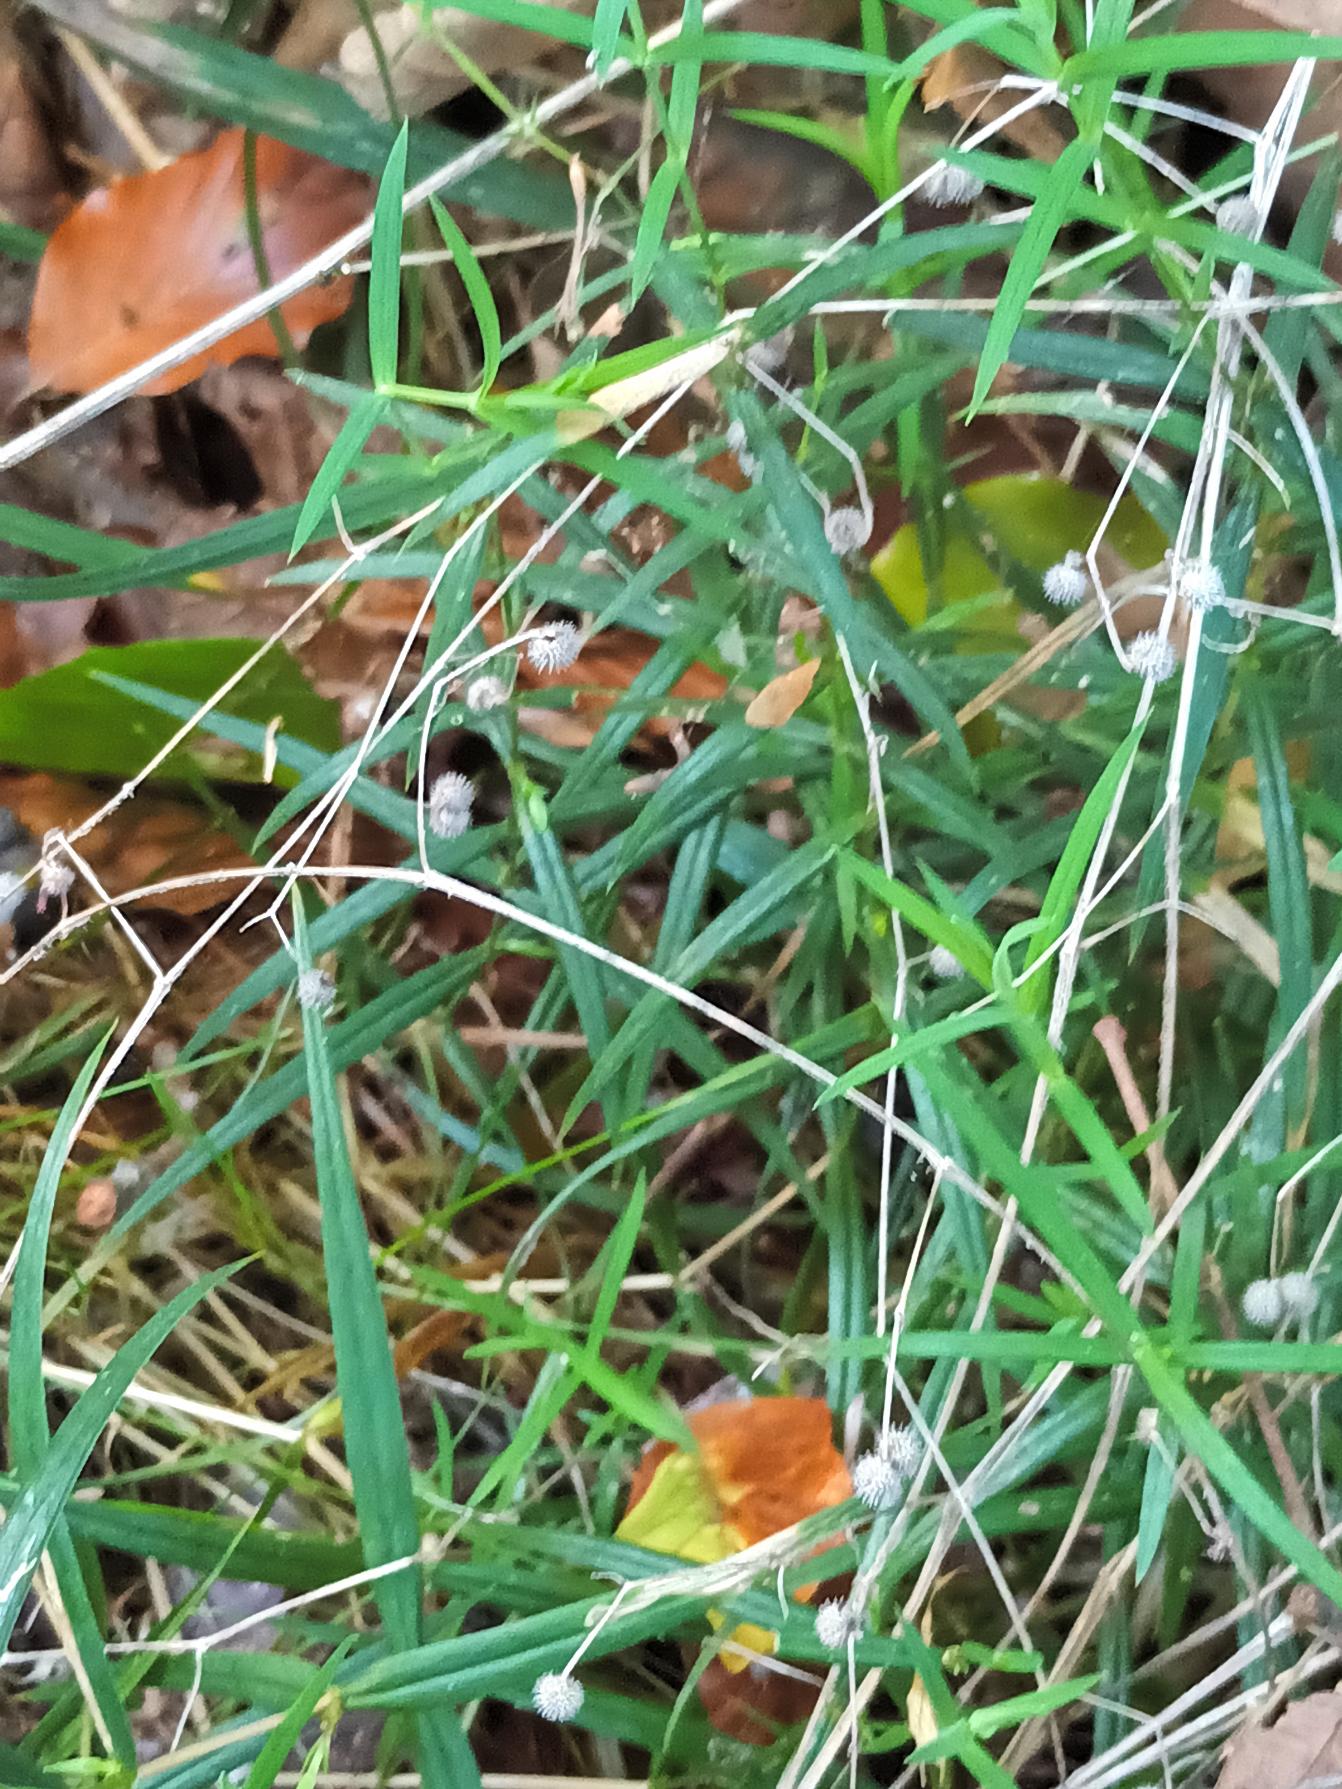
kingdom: Plantae
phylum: Tracheophyta
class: Magnoliopsida
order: Gentianales
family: Rubiaceae
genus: Galium
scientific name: Galium aparine
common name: Burre-snerre
